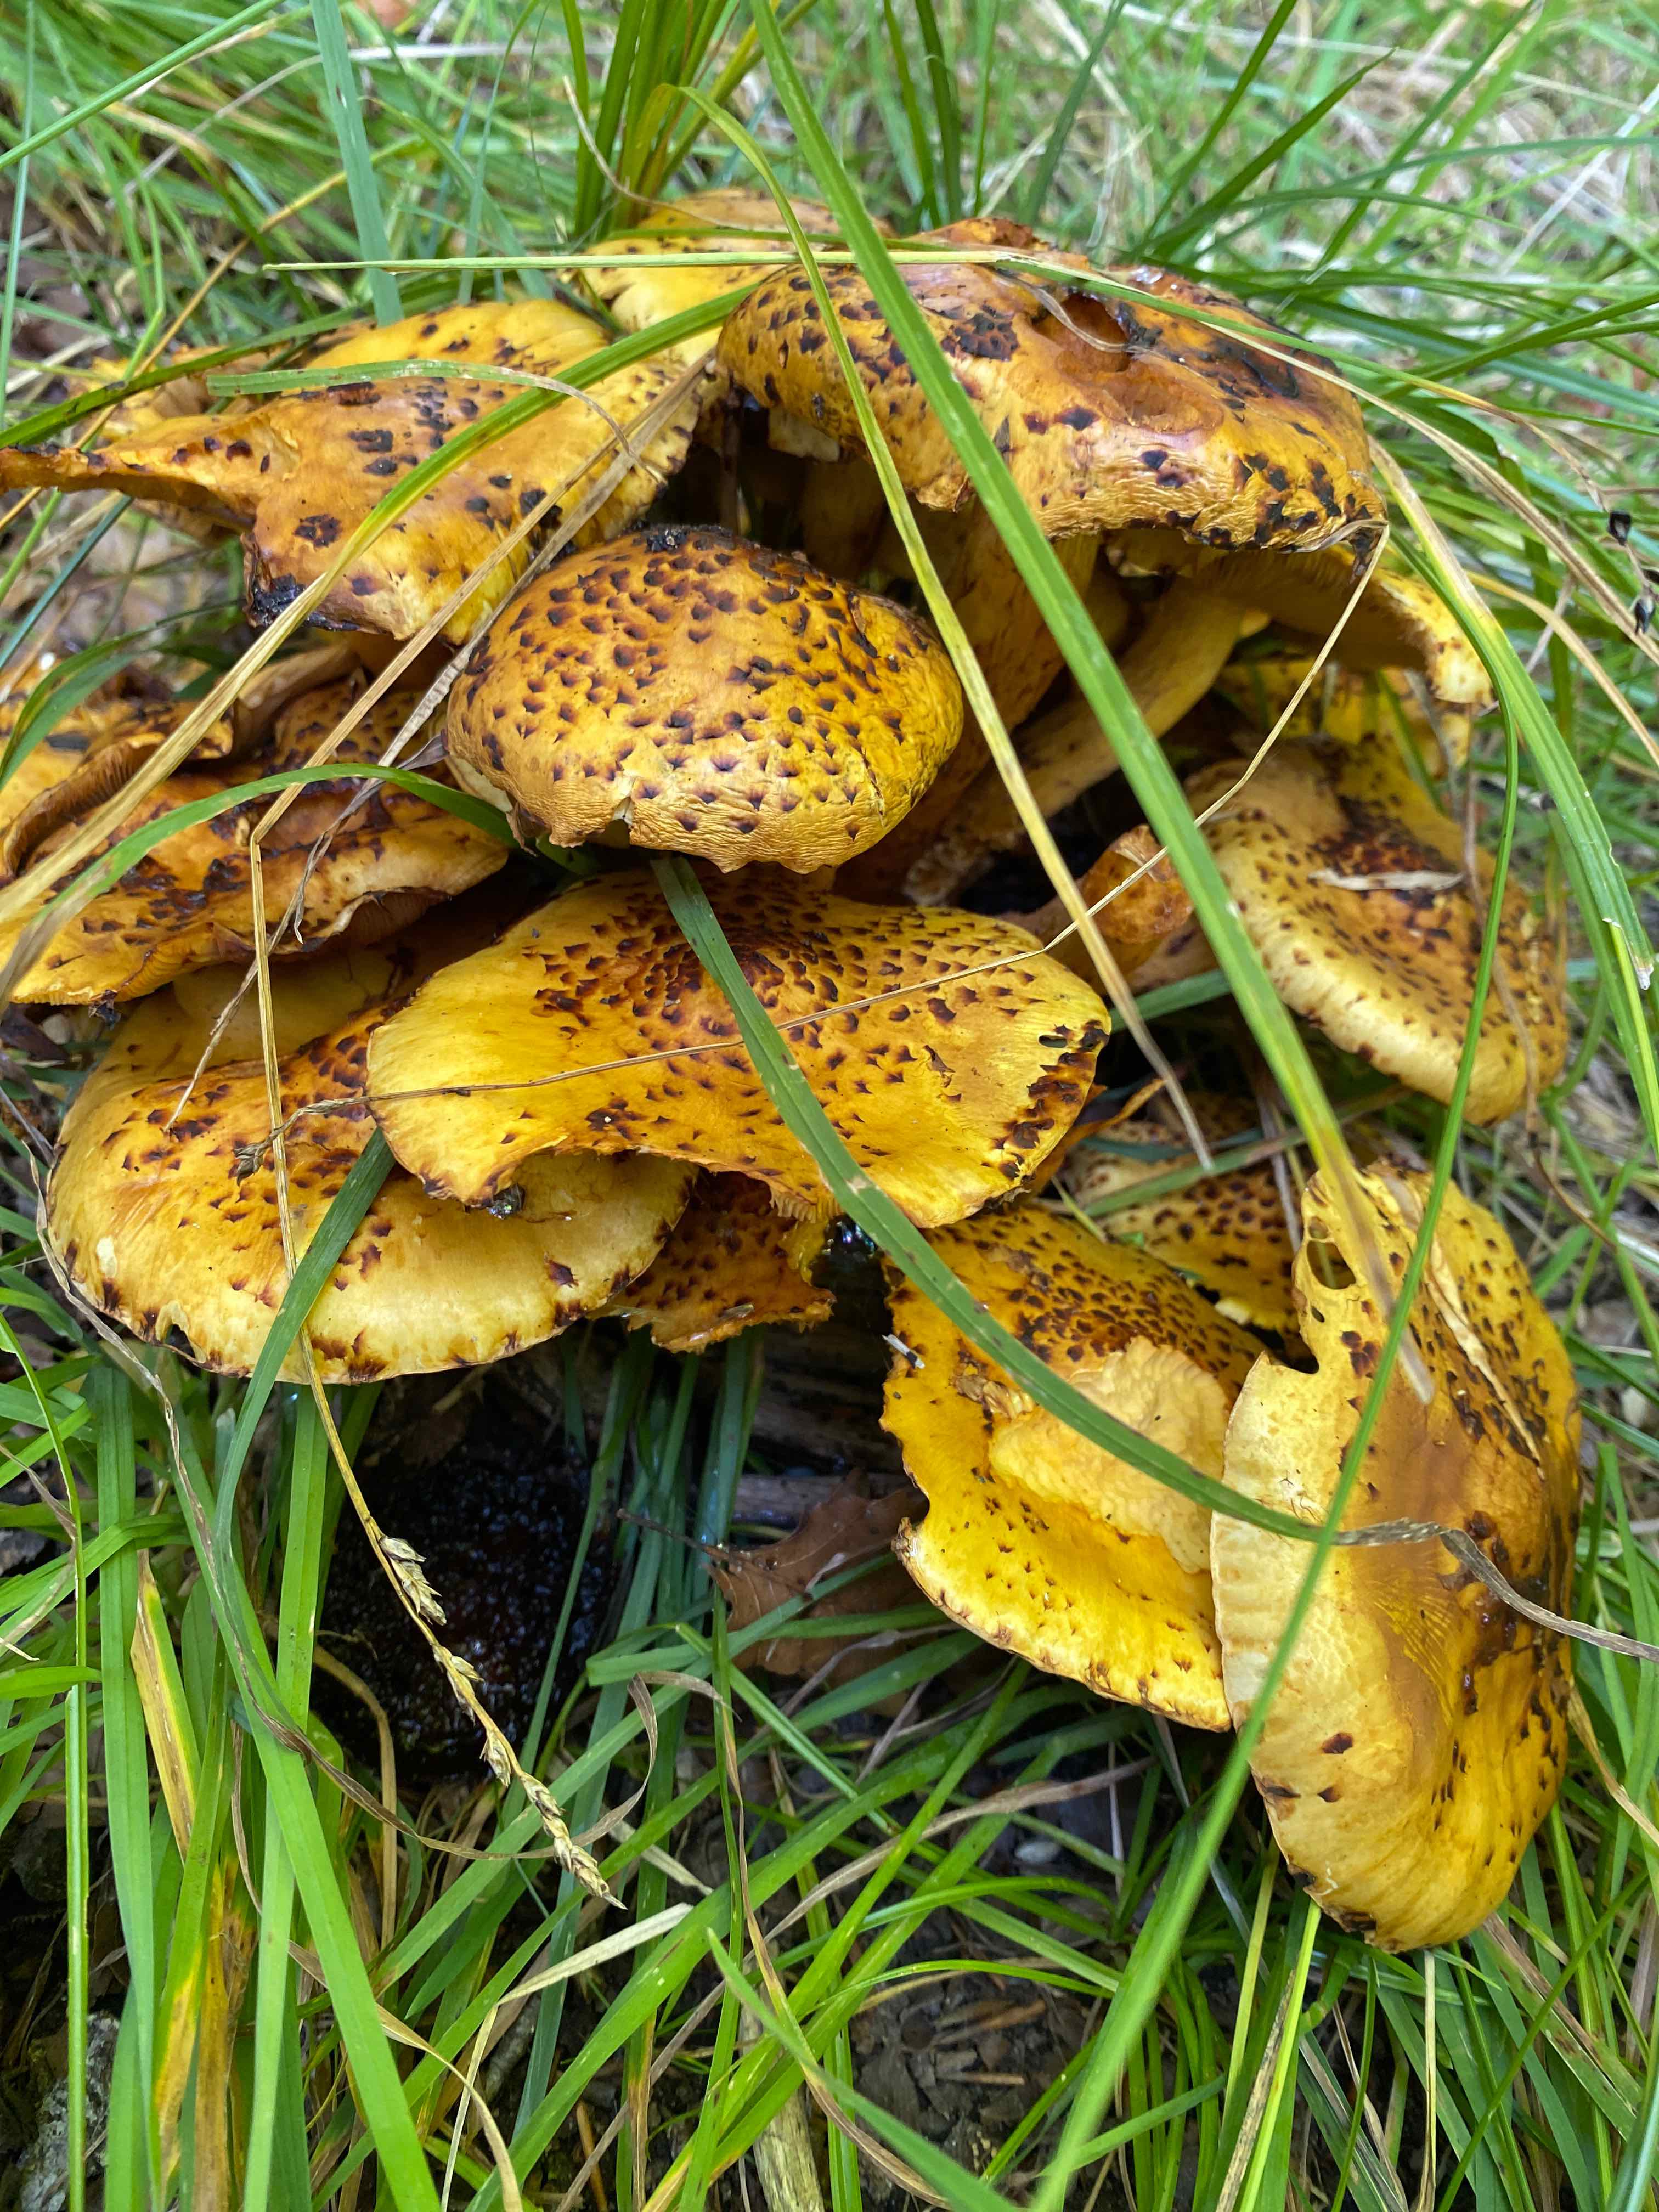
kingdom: Fungi
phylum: Basidiomycota
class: Agaricomycetes
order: Agaricales
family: Strophariaceae
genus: Pholiota
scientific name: Pholiota jahnii
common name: slimet skælhat
